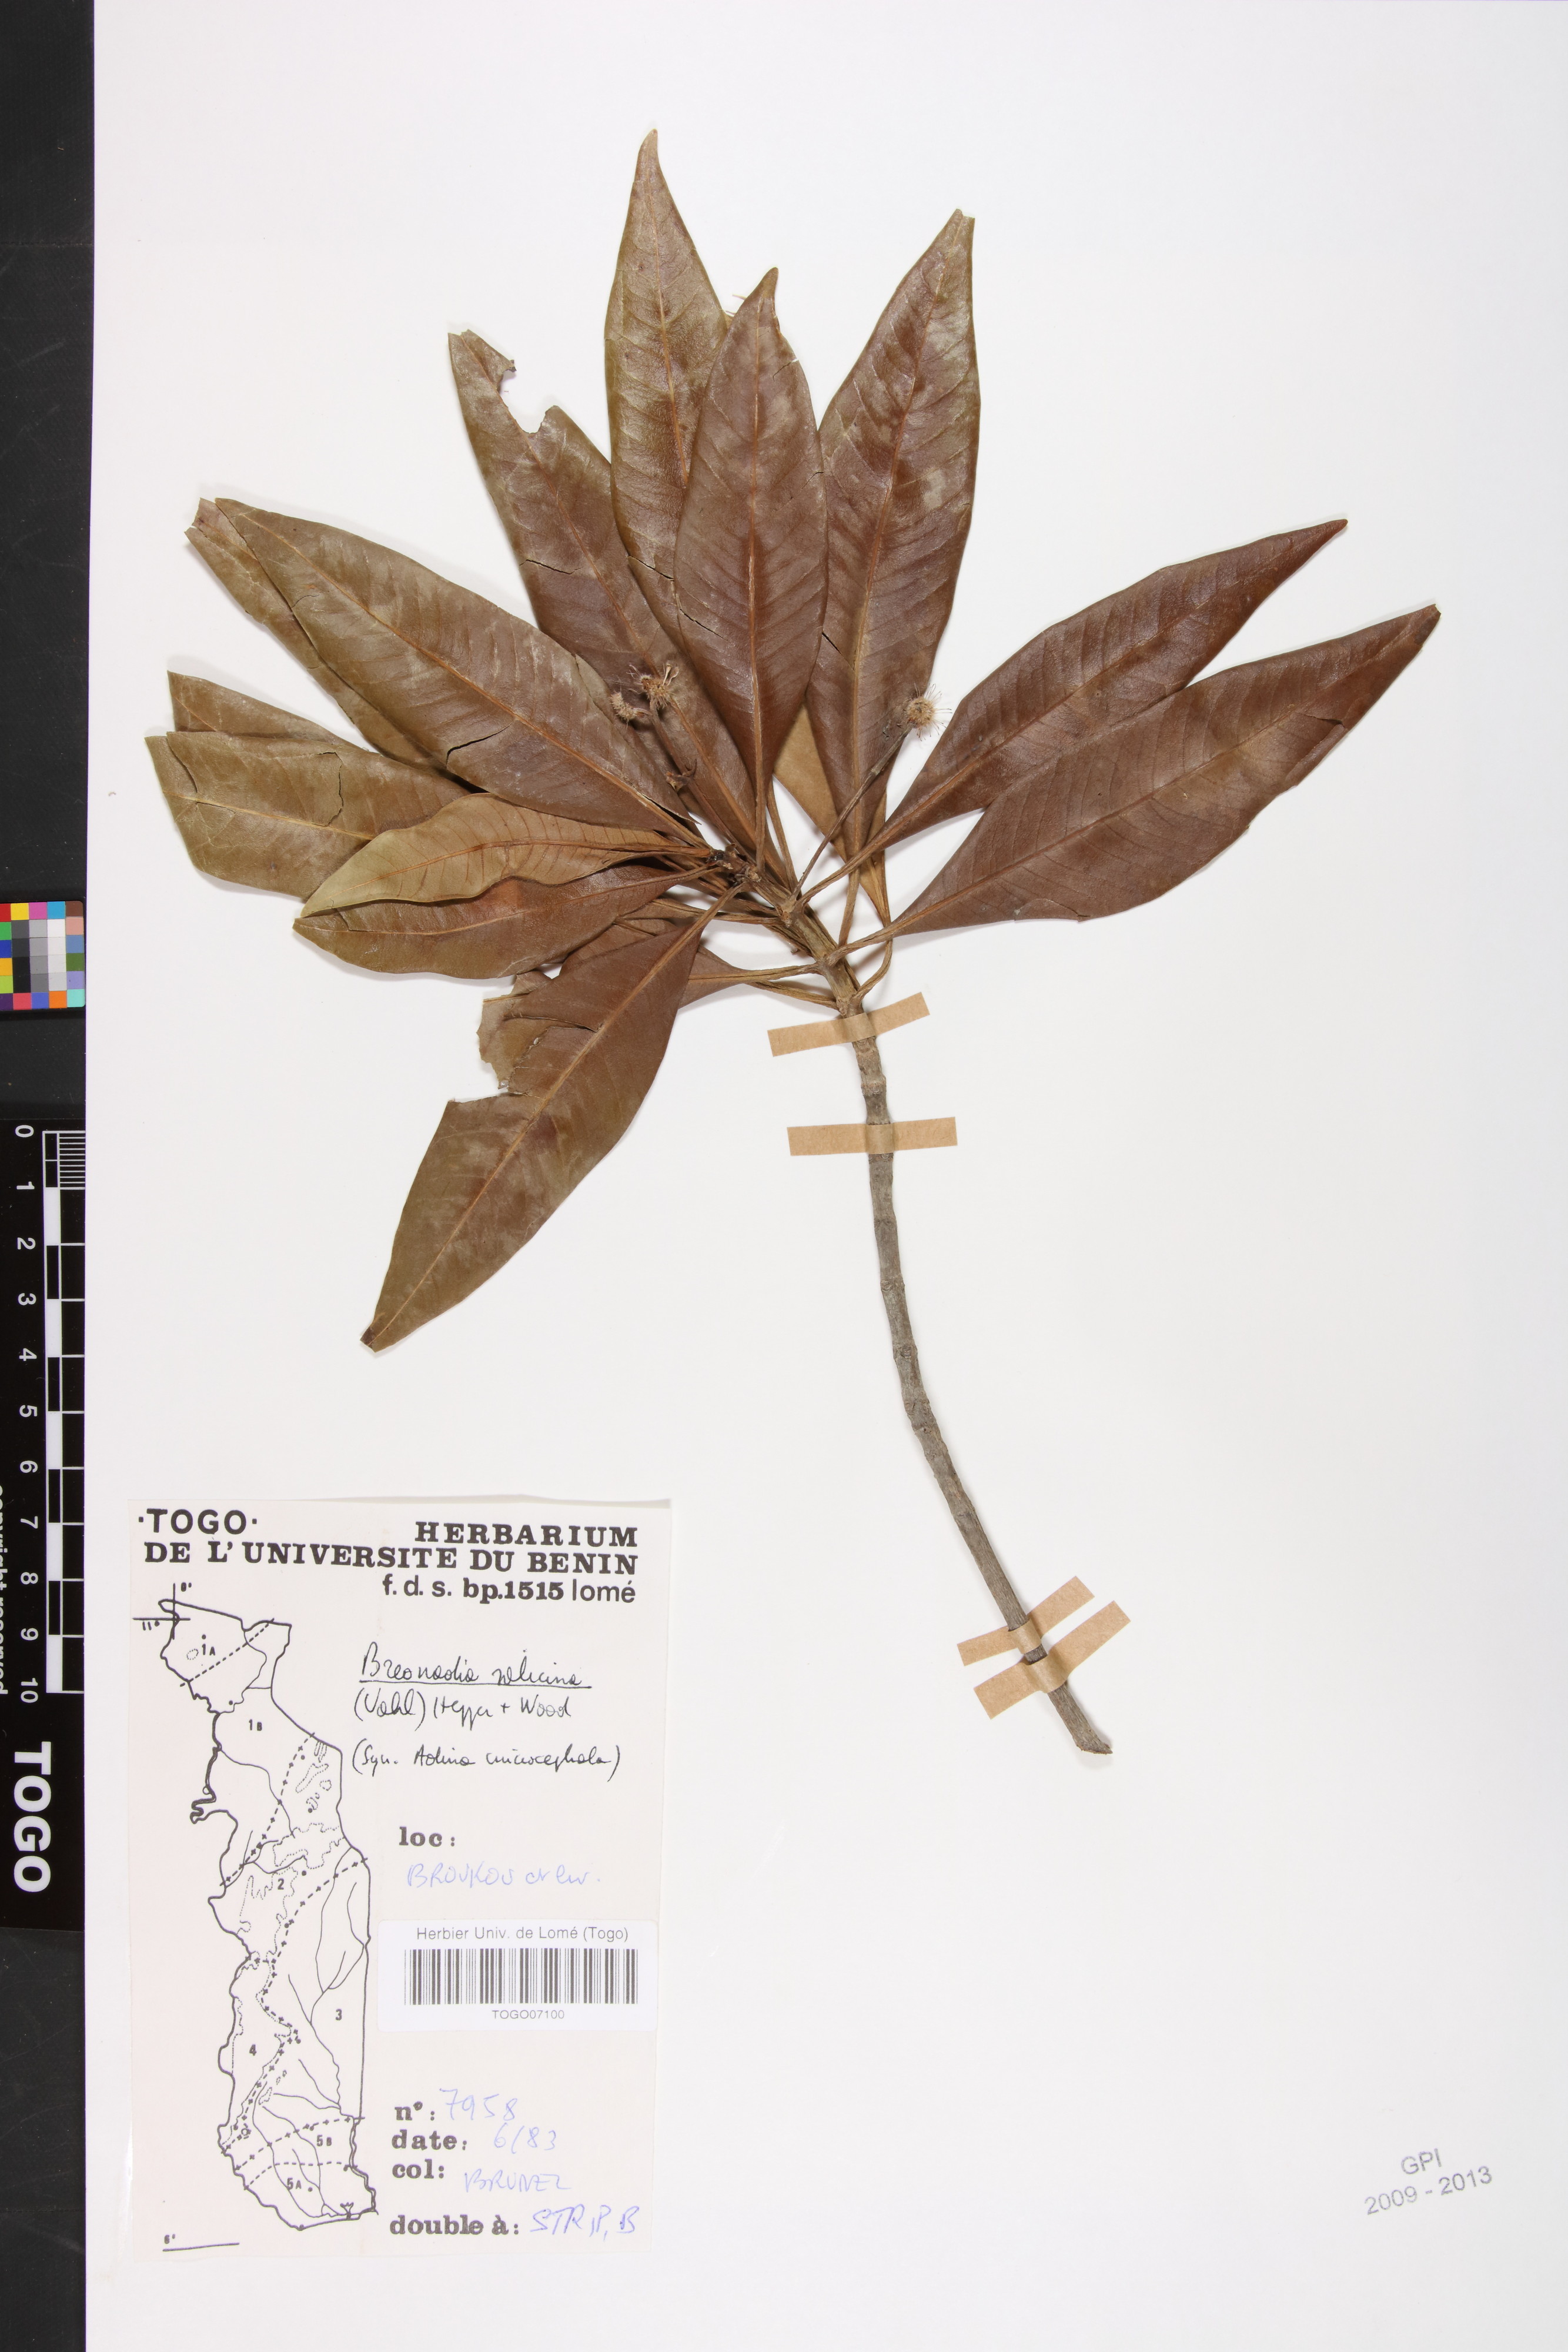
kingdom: Plantae
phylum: Tracheophyta
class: Magnoliopsida
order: Gentianales
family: Rubiaceae
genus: Breonadia
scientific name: Breonadia salicina
